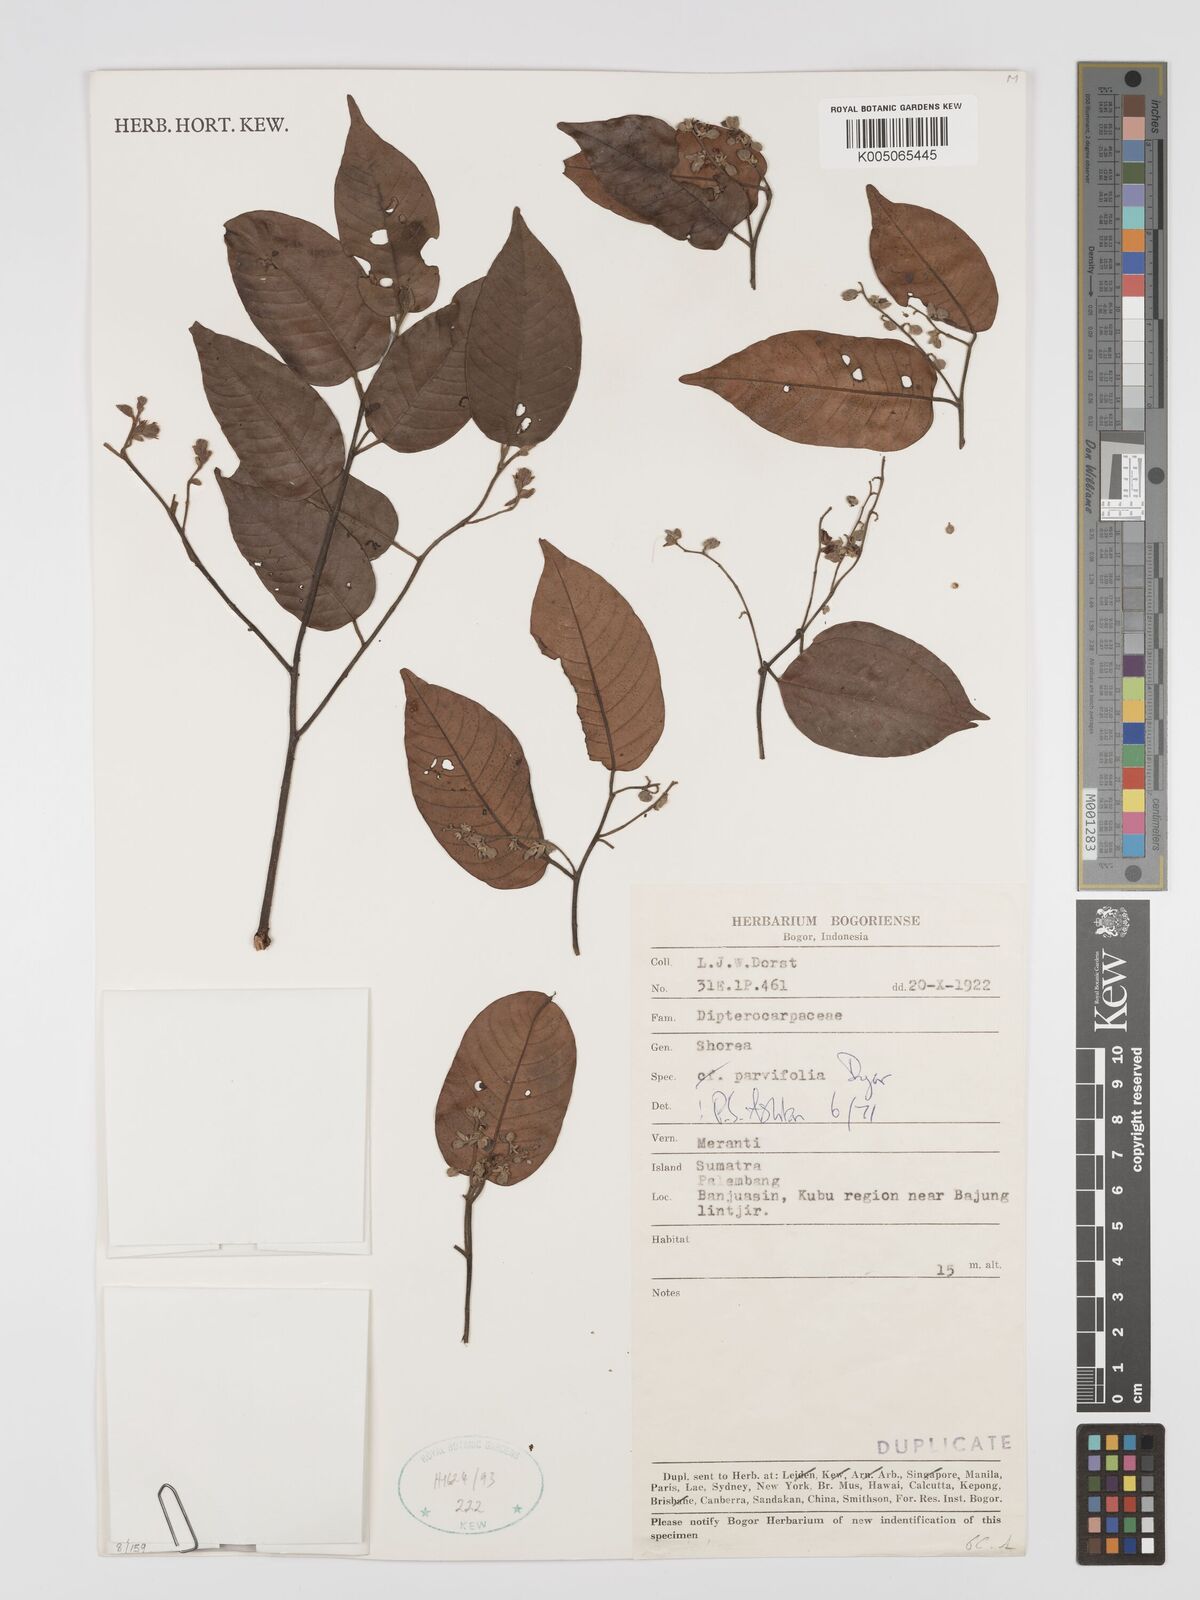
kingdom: Plantae
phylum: Tracheophyta
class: Magnoliopsida
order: Malvales
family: Dipterocarpaceae
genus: Shorea
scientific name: Shorea parvifolia
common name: Light red meranti
